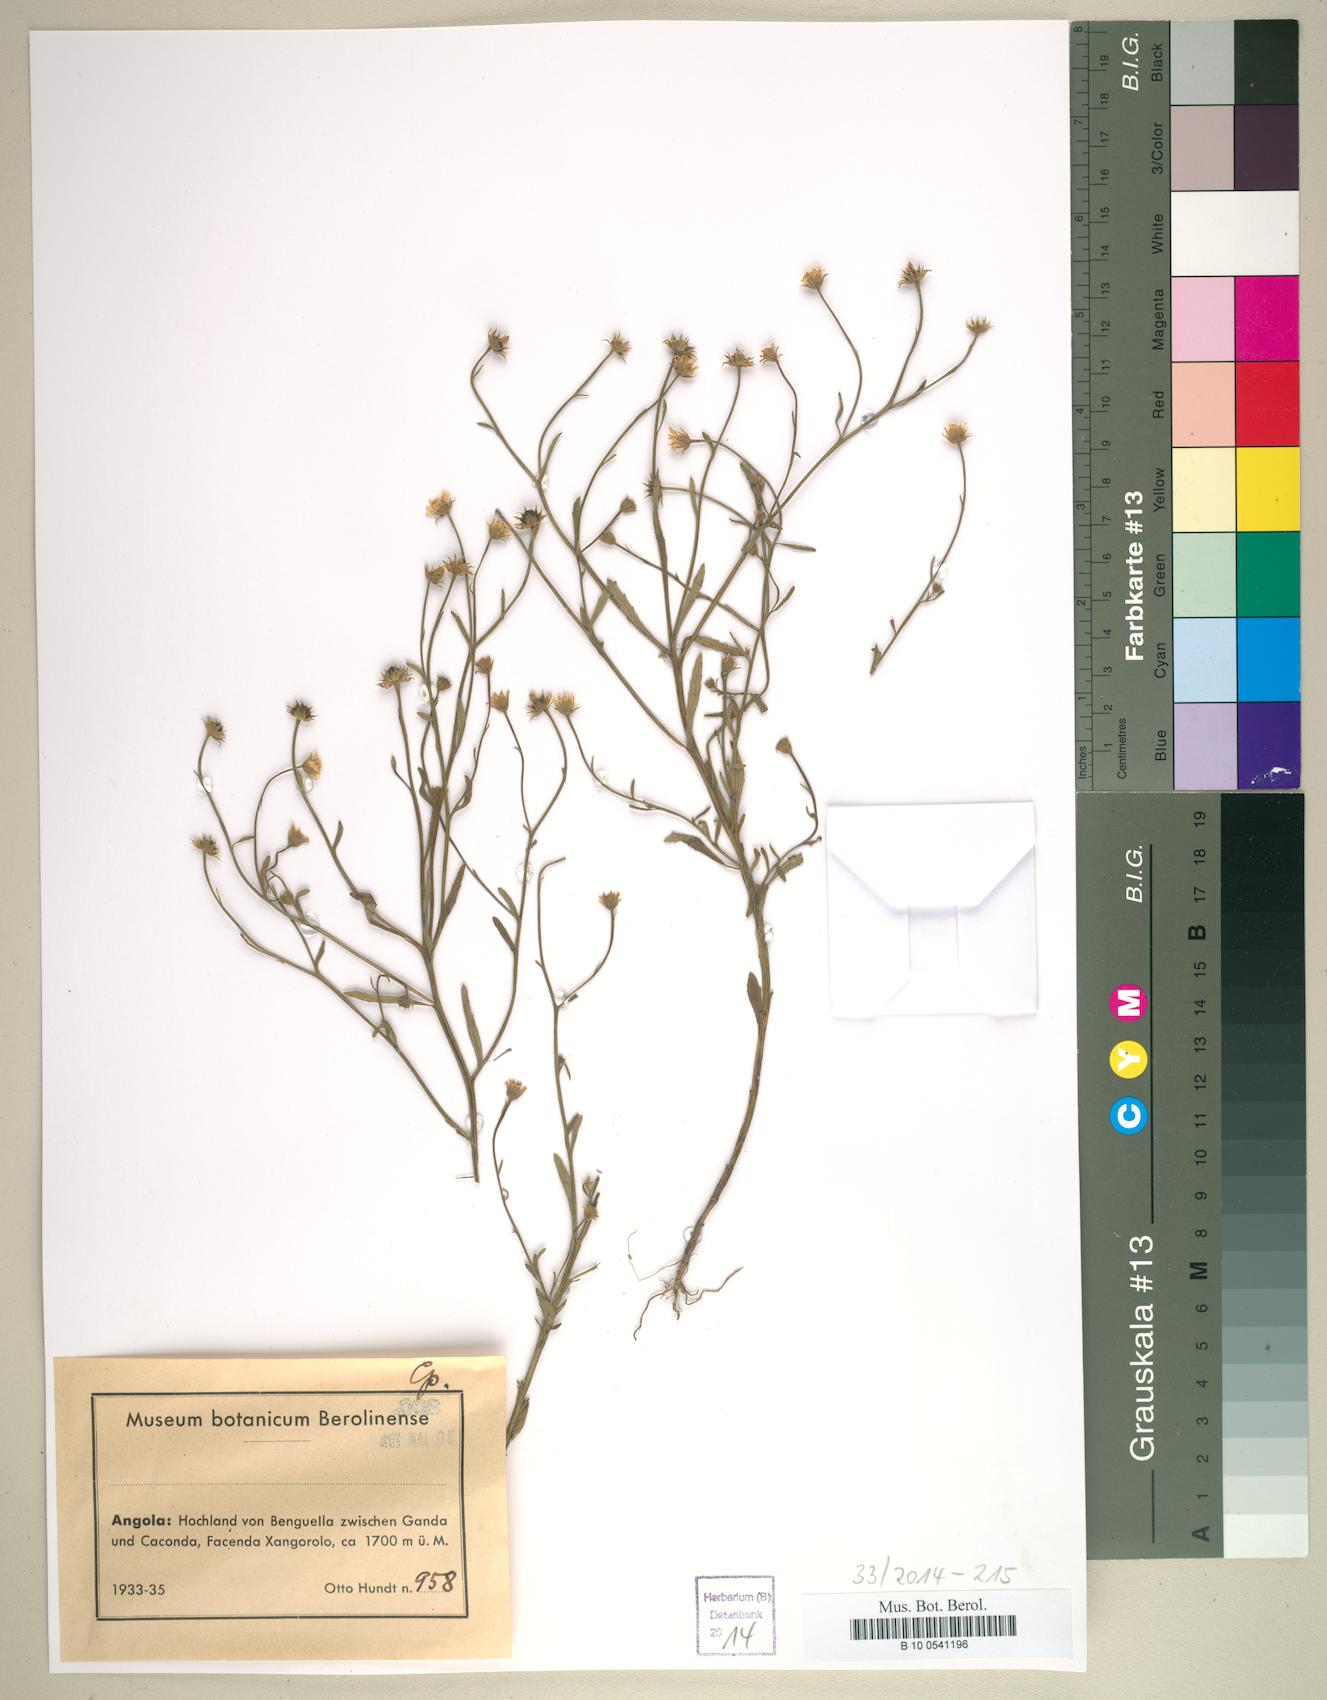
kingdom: Plantae
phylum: Tracheophyta
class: Magnoliopsida
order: Asterales
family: Asteraceae
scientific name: Asteraceae
